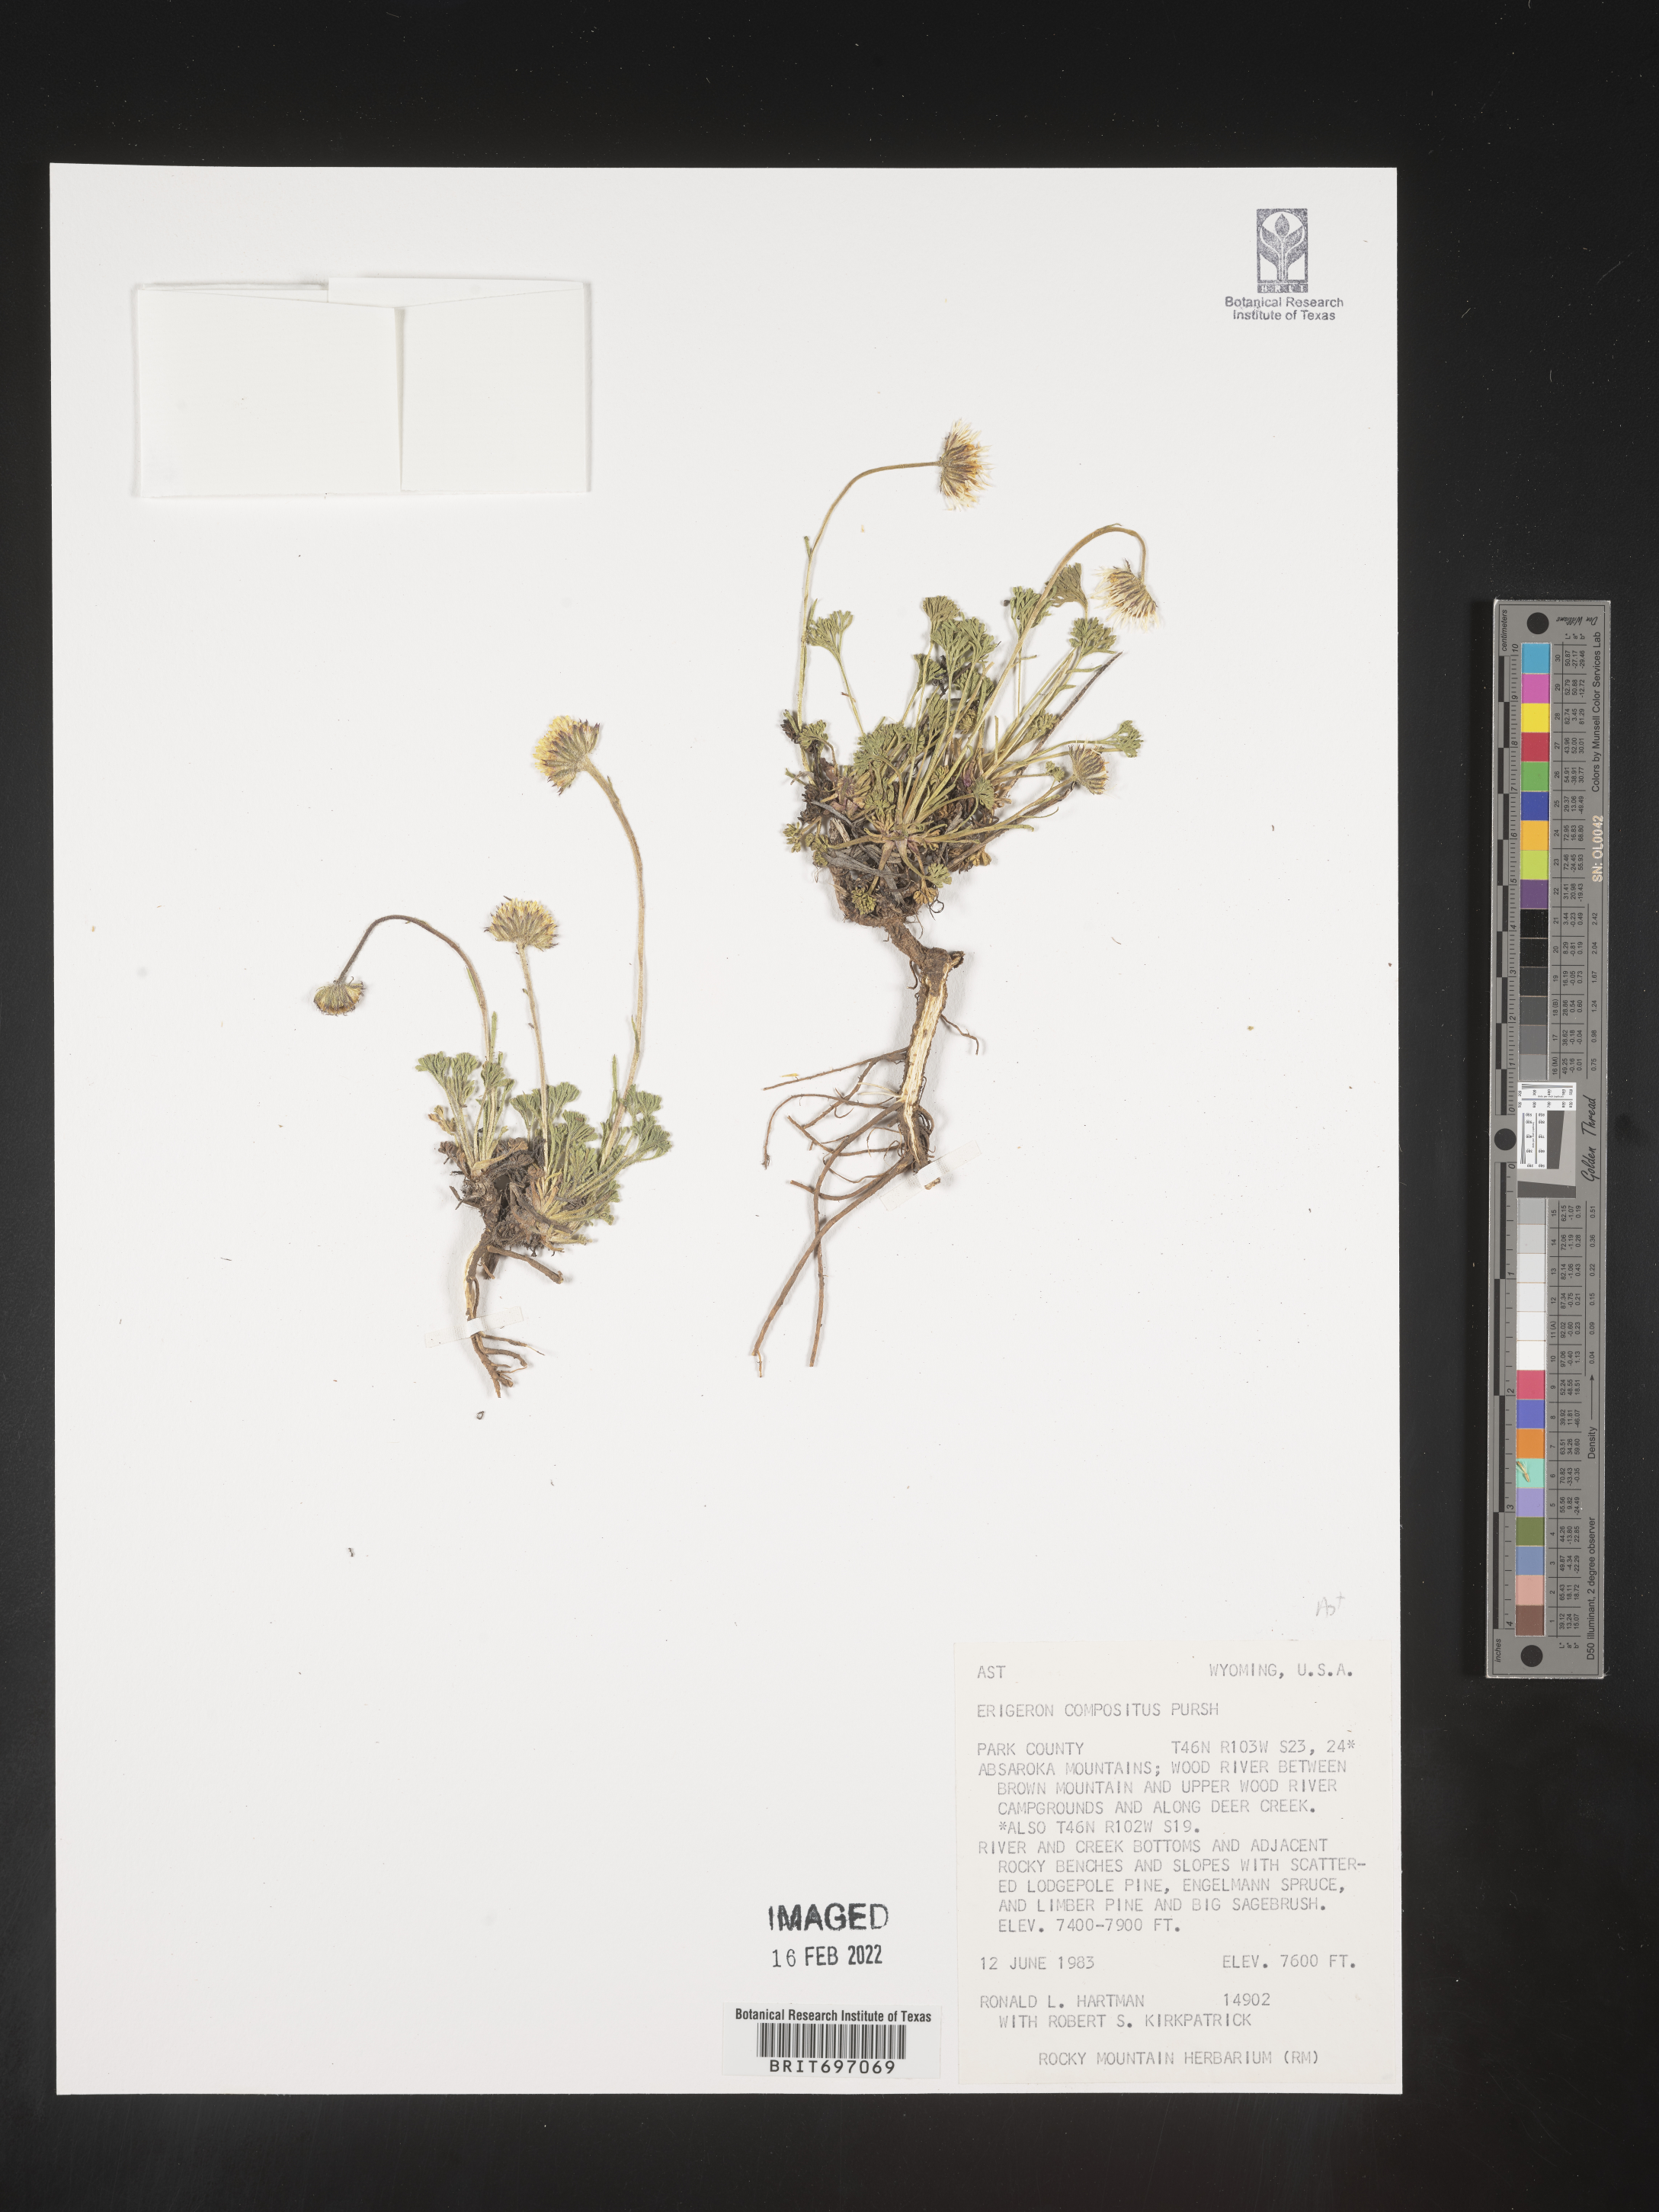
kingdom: Plantae
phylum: Tracheophyta
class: Magnoliopsida
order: Asterales
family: Asteraceae
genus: Erigeron
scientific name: Erigeron compositus
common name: Dwarf mountain fleabane
